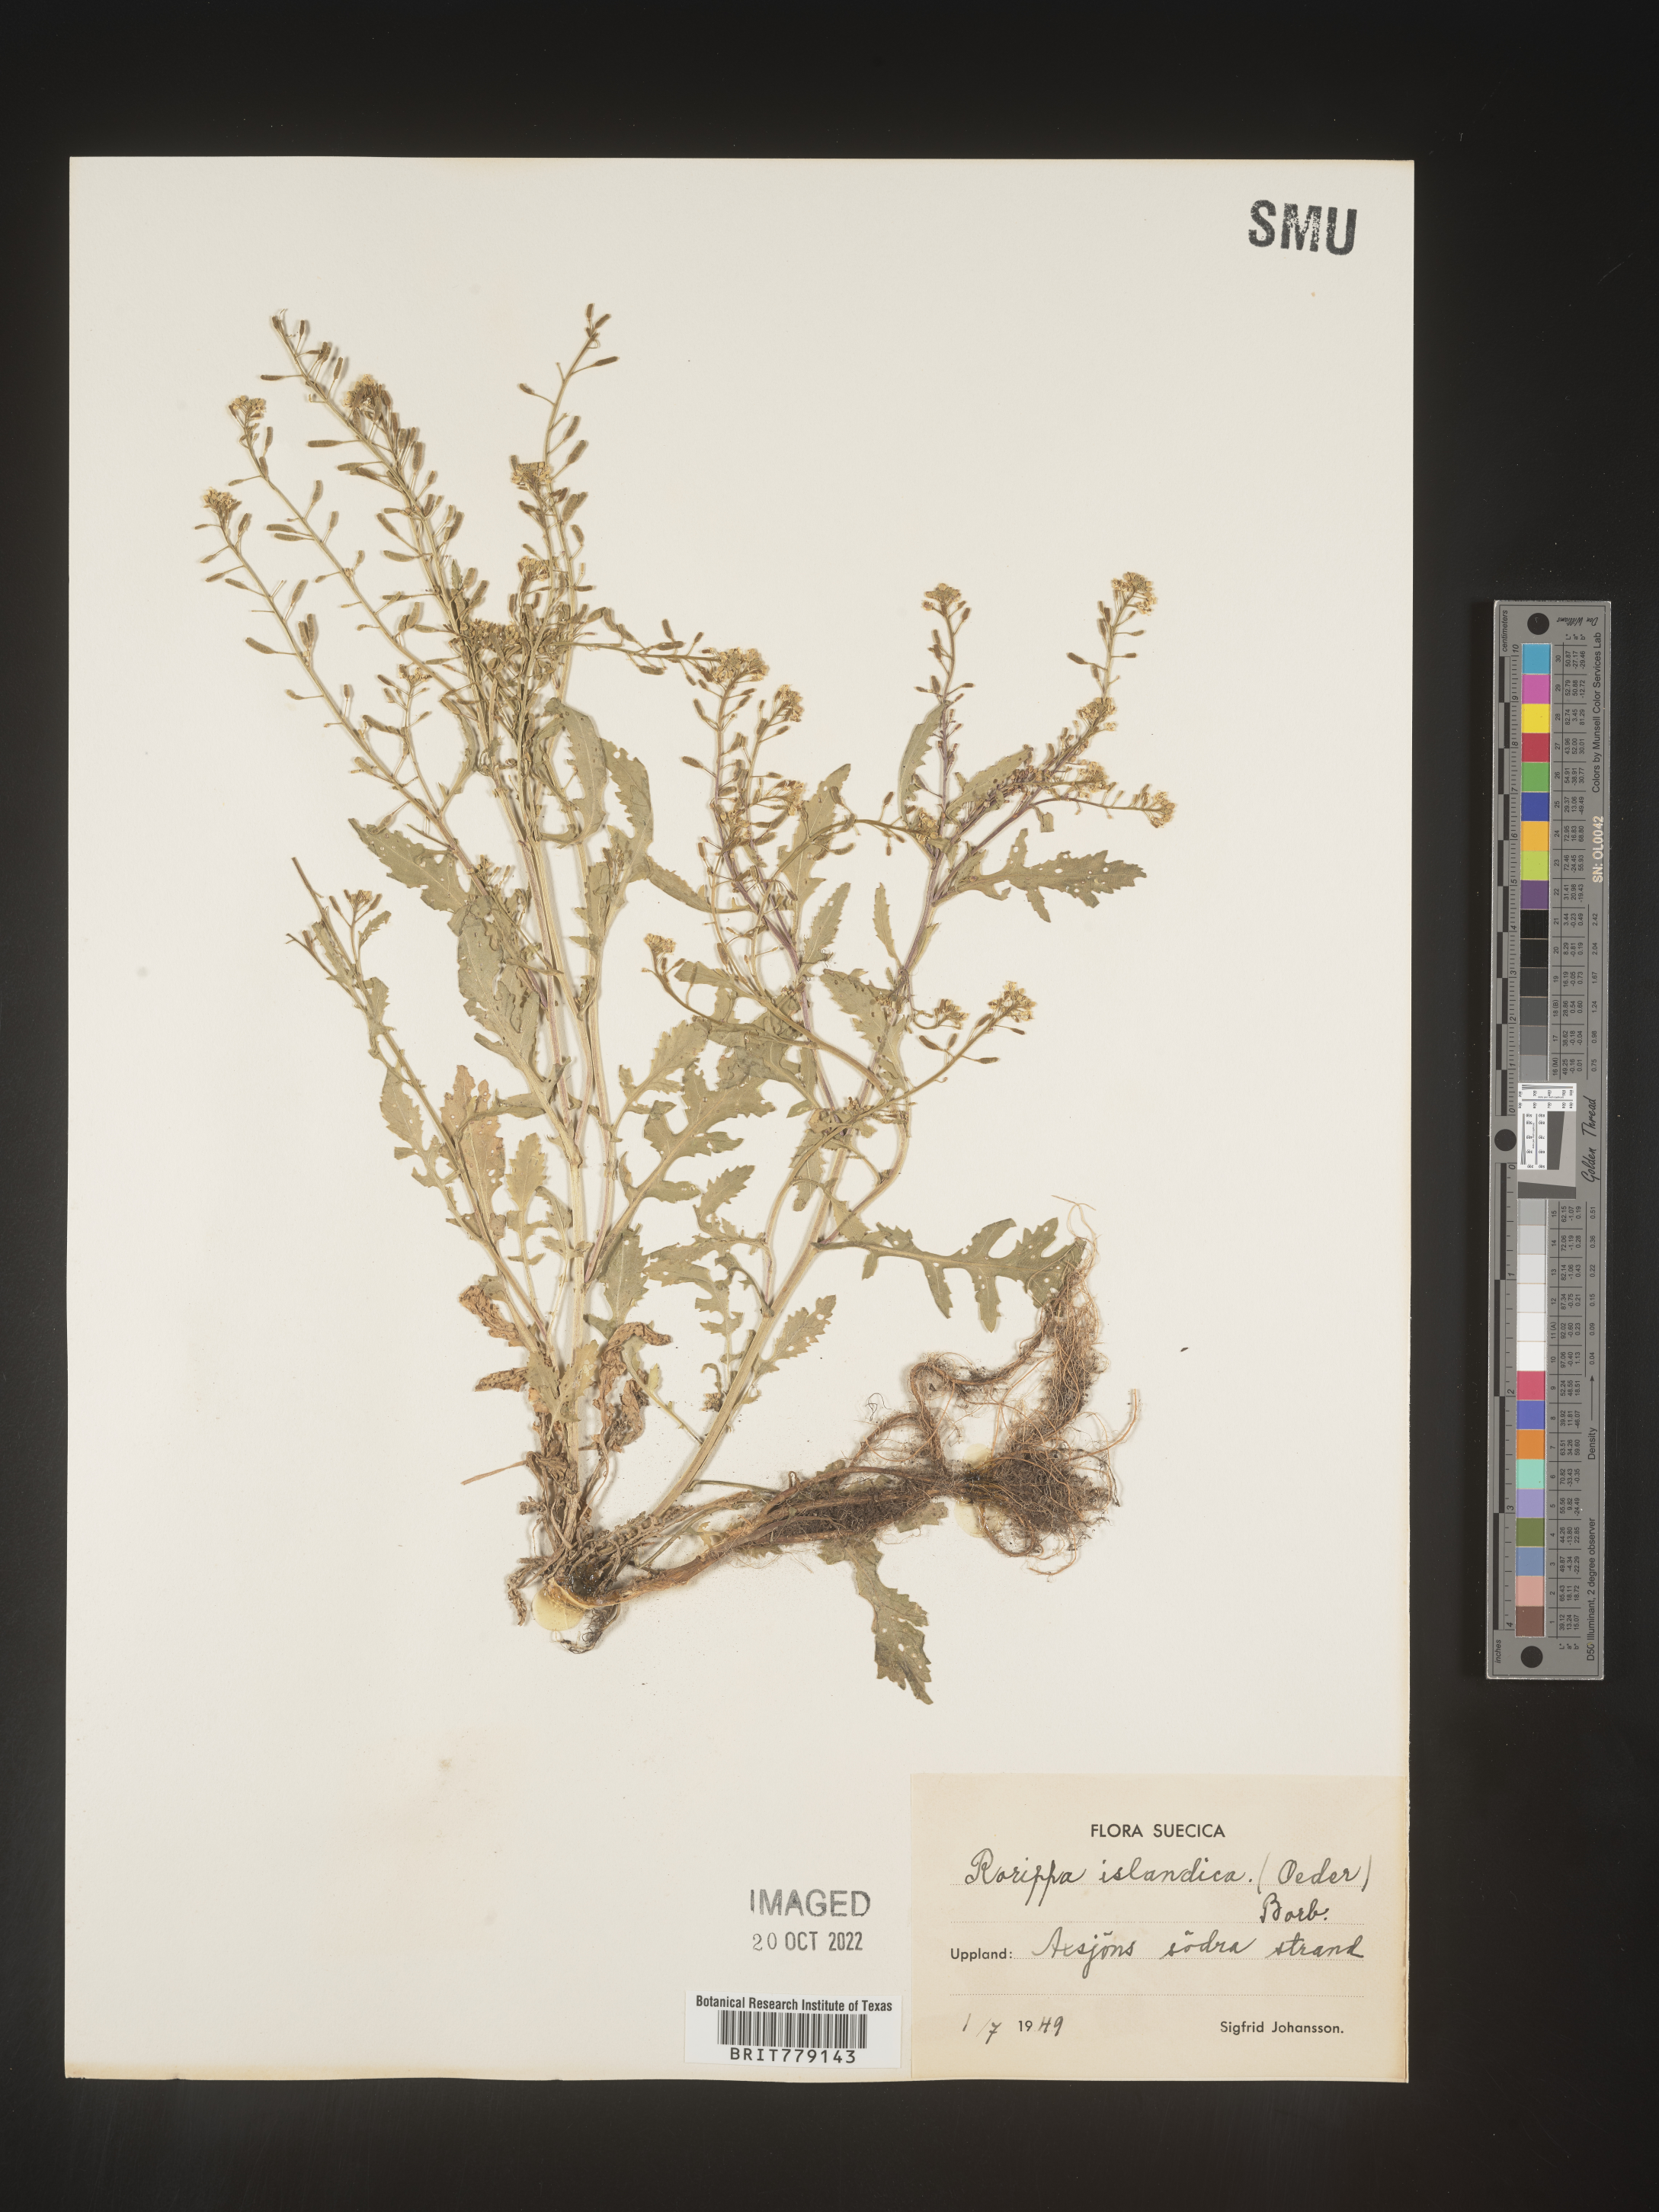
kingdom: Plantae
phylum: Tracheophyta
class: Magnoliopsida
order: Brassicales
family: Brassicaceae
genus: Rorippa
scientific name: Rorippa
